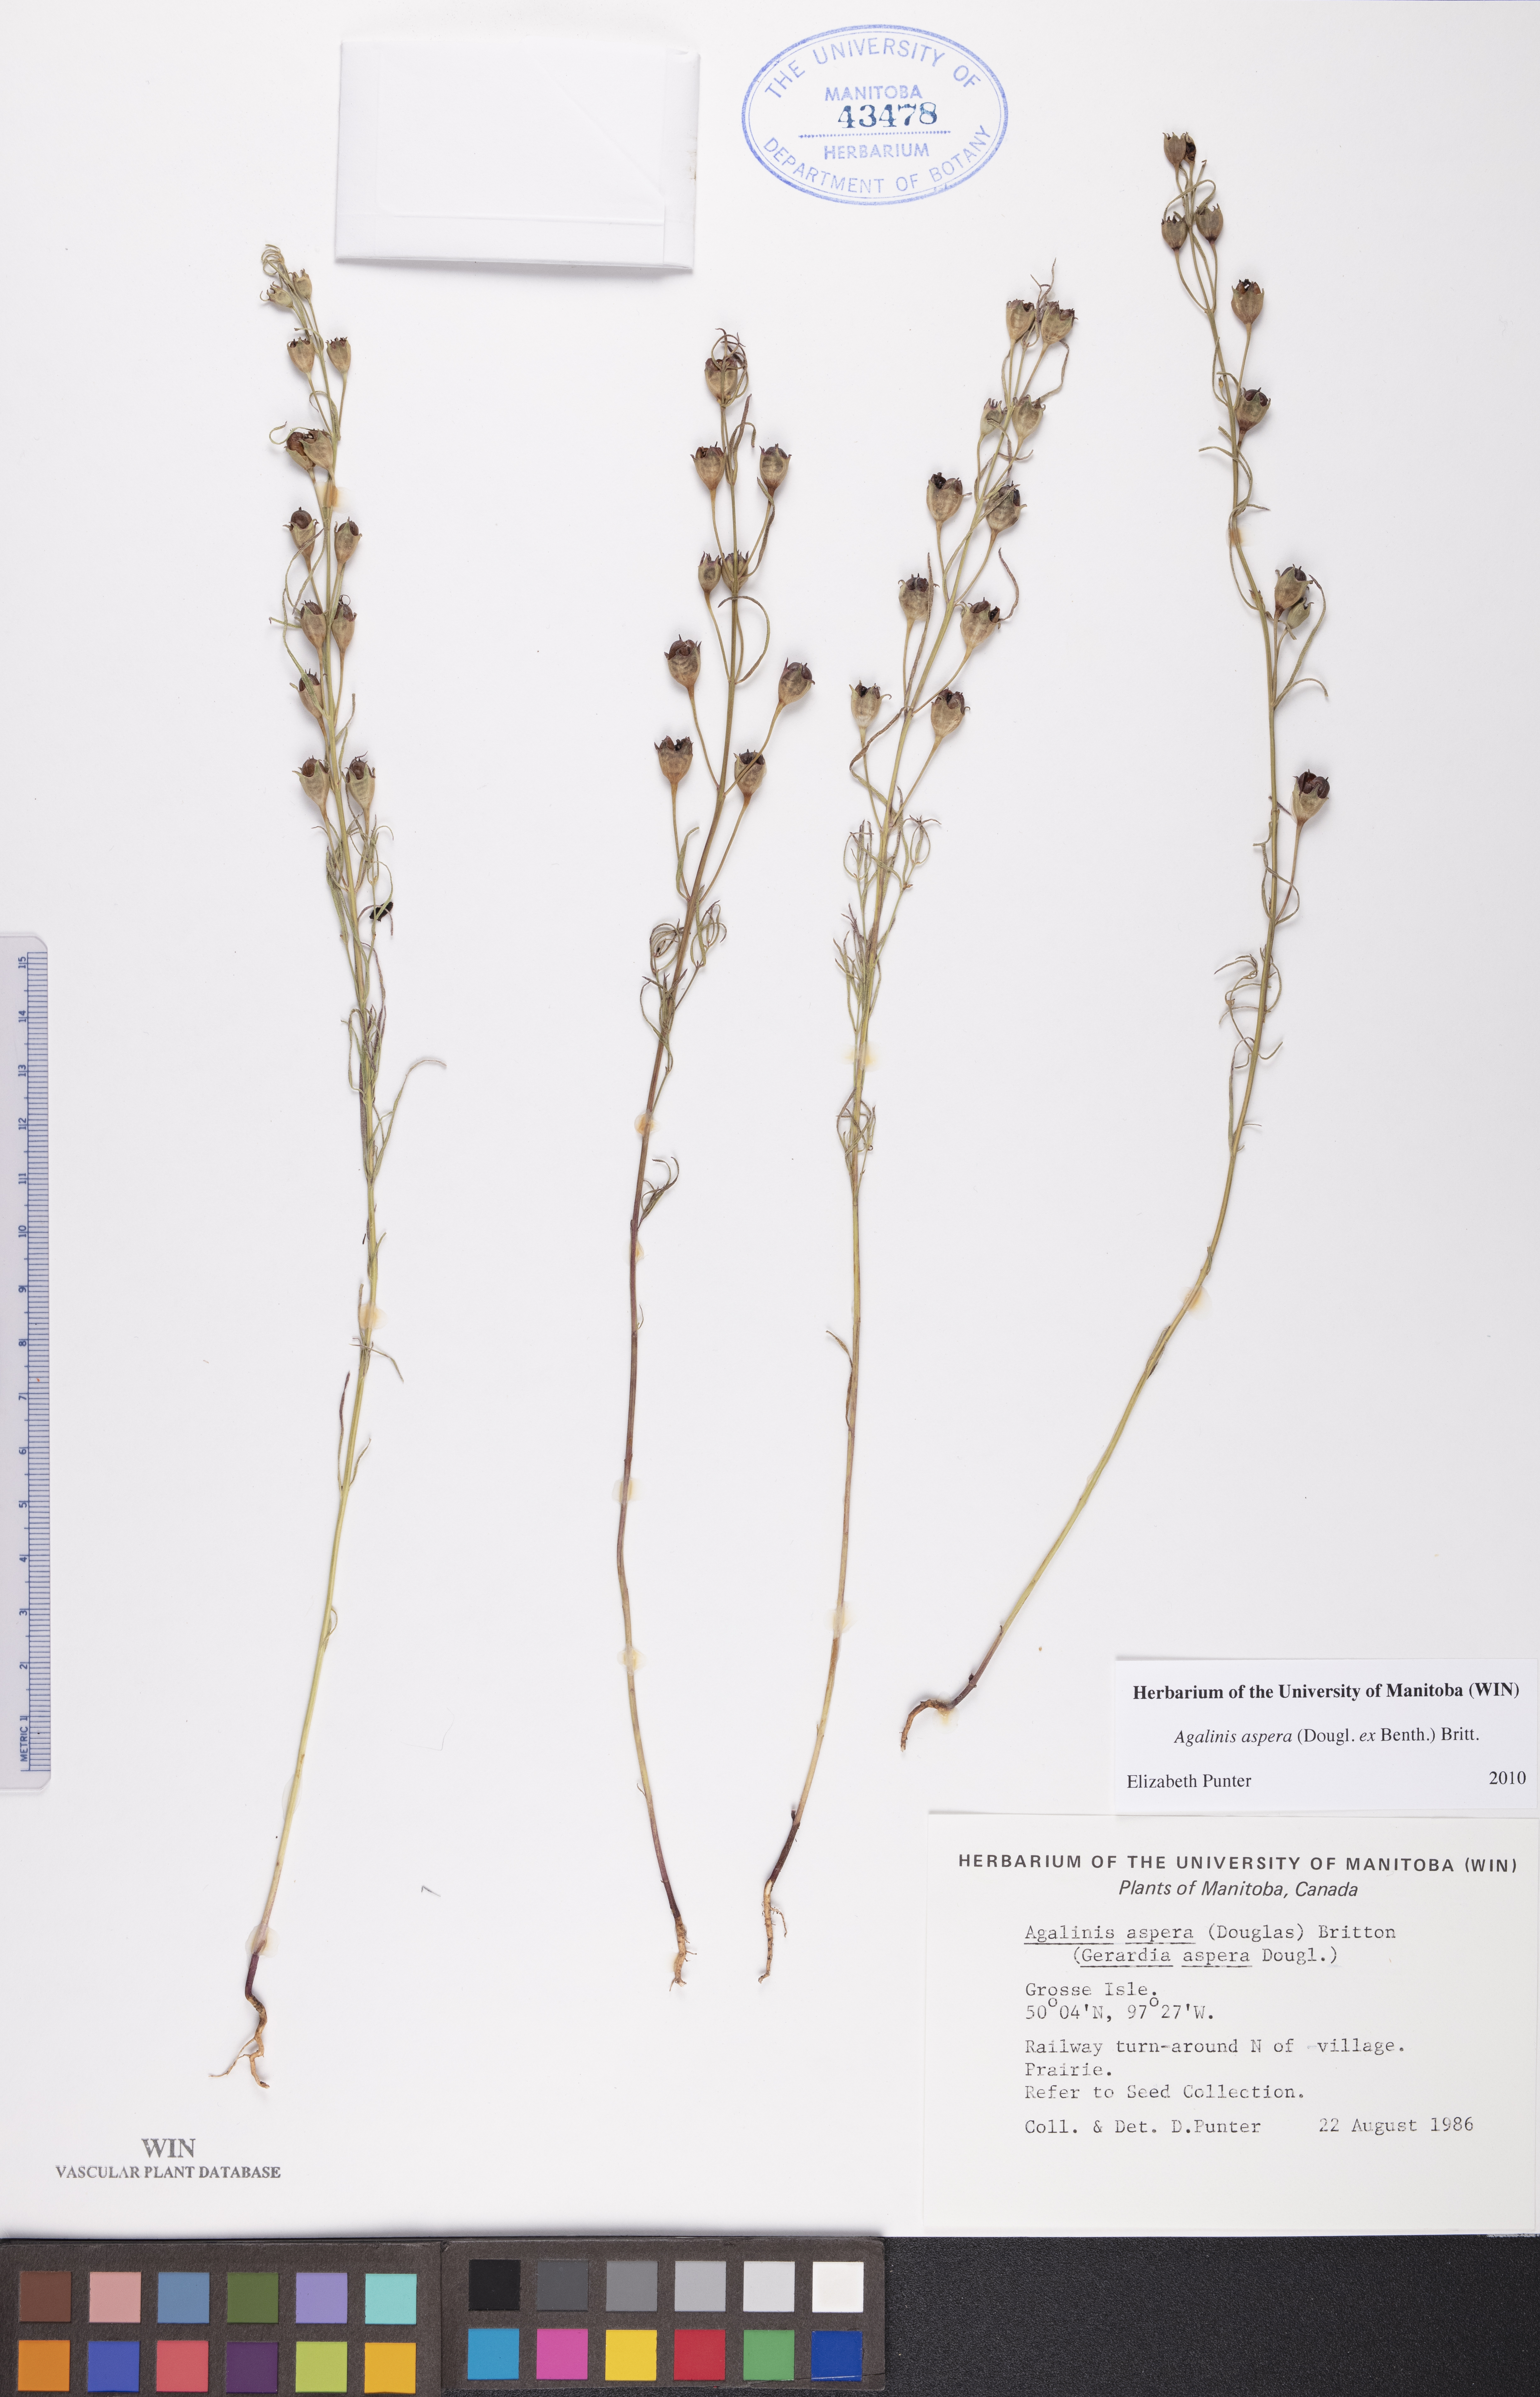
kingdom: Plantae
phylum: Tracheophyta
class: Magnoliopsida
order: Lamiales
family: Orobanchaceae
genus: Agalinis
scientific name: Agalinis aspera
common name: Rough agalinis
